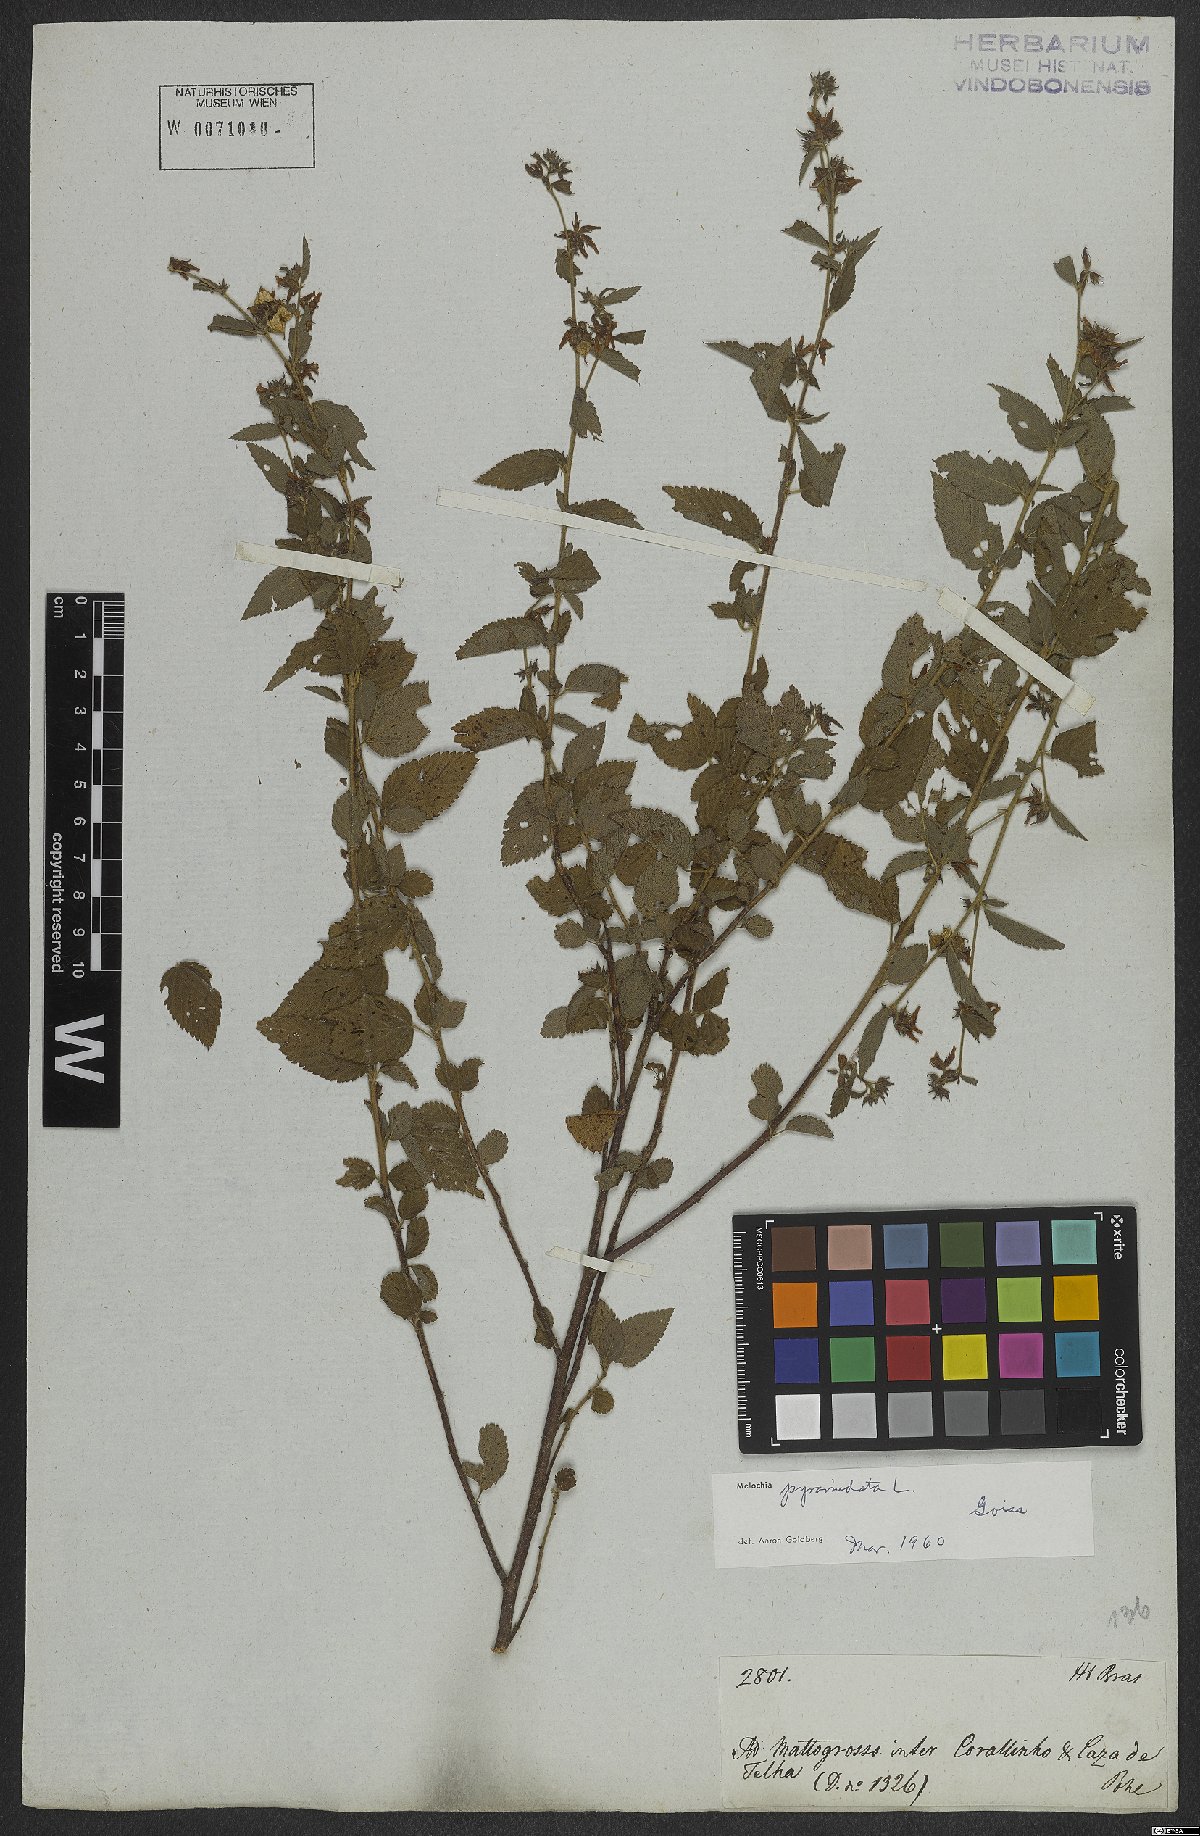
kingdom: Plantae
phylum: Tracheophyta
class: Magnoliopsida
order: Malvales
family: Malvaceae
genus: Melochia
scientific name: Melochia pyramidata
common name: Pyramidflower
